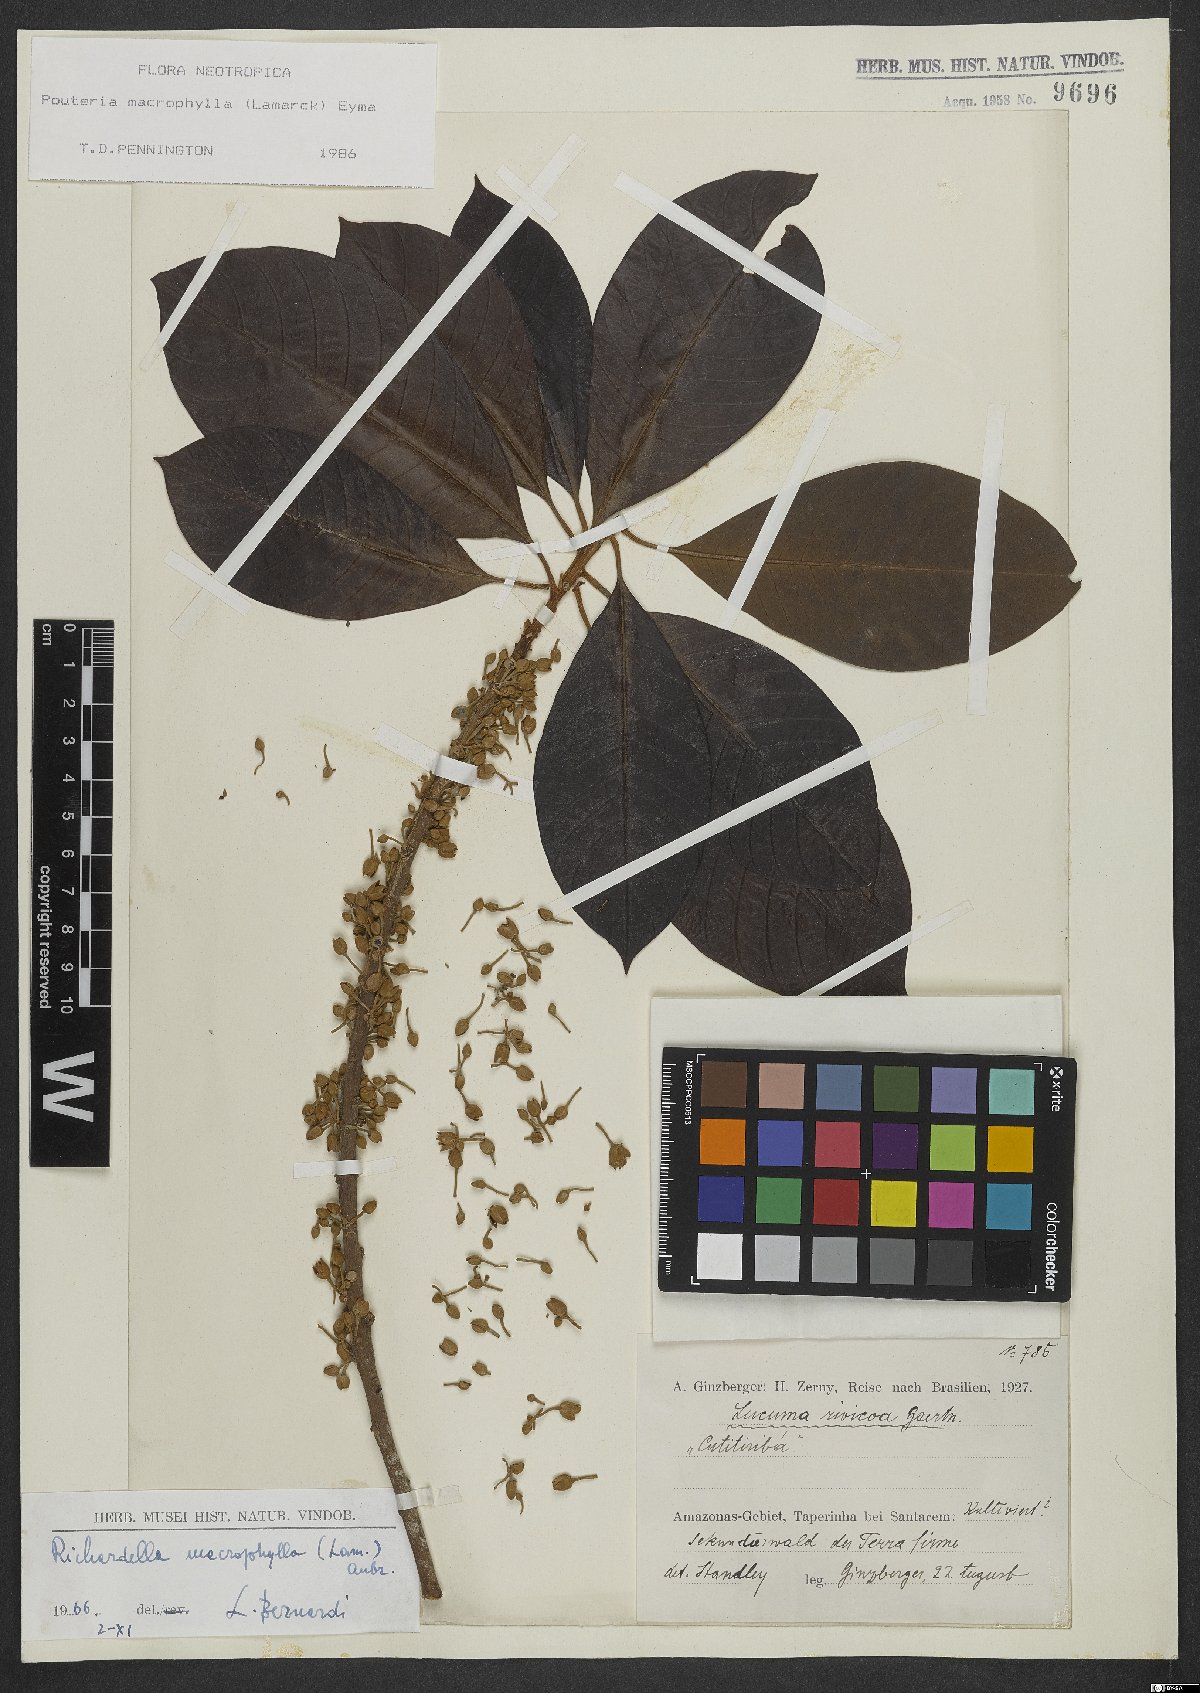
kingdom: Plantae
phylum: Tracheophyta
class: Magnoliopsida
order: Ericales
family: Sapotaceae
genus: Pouteria
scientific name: Pouteria macrophylla
